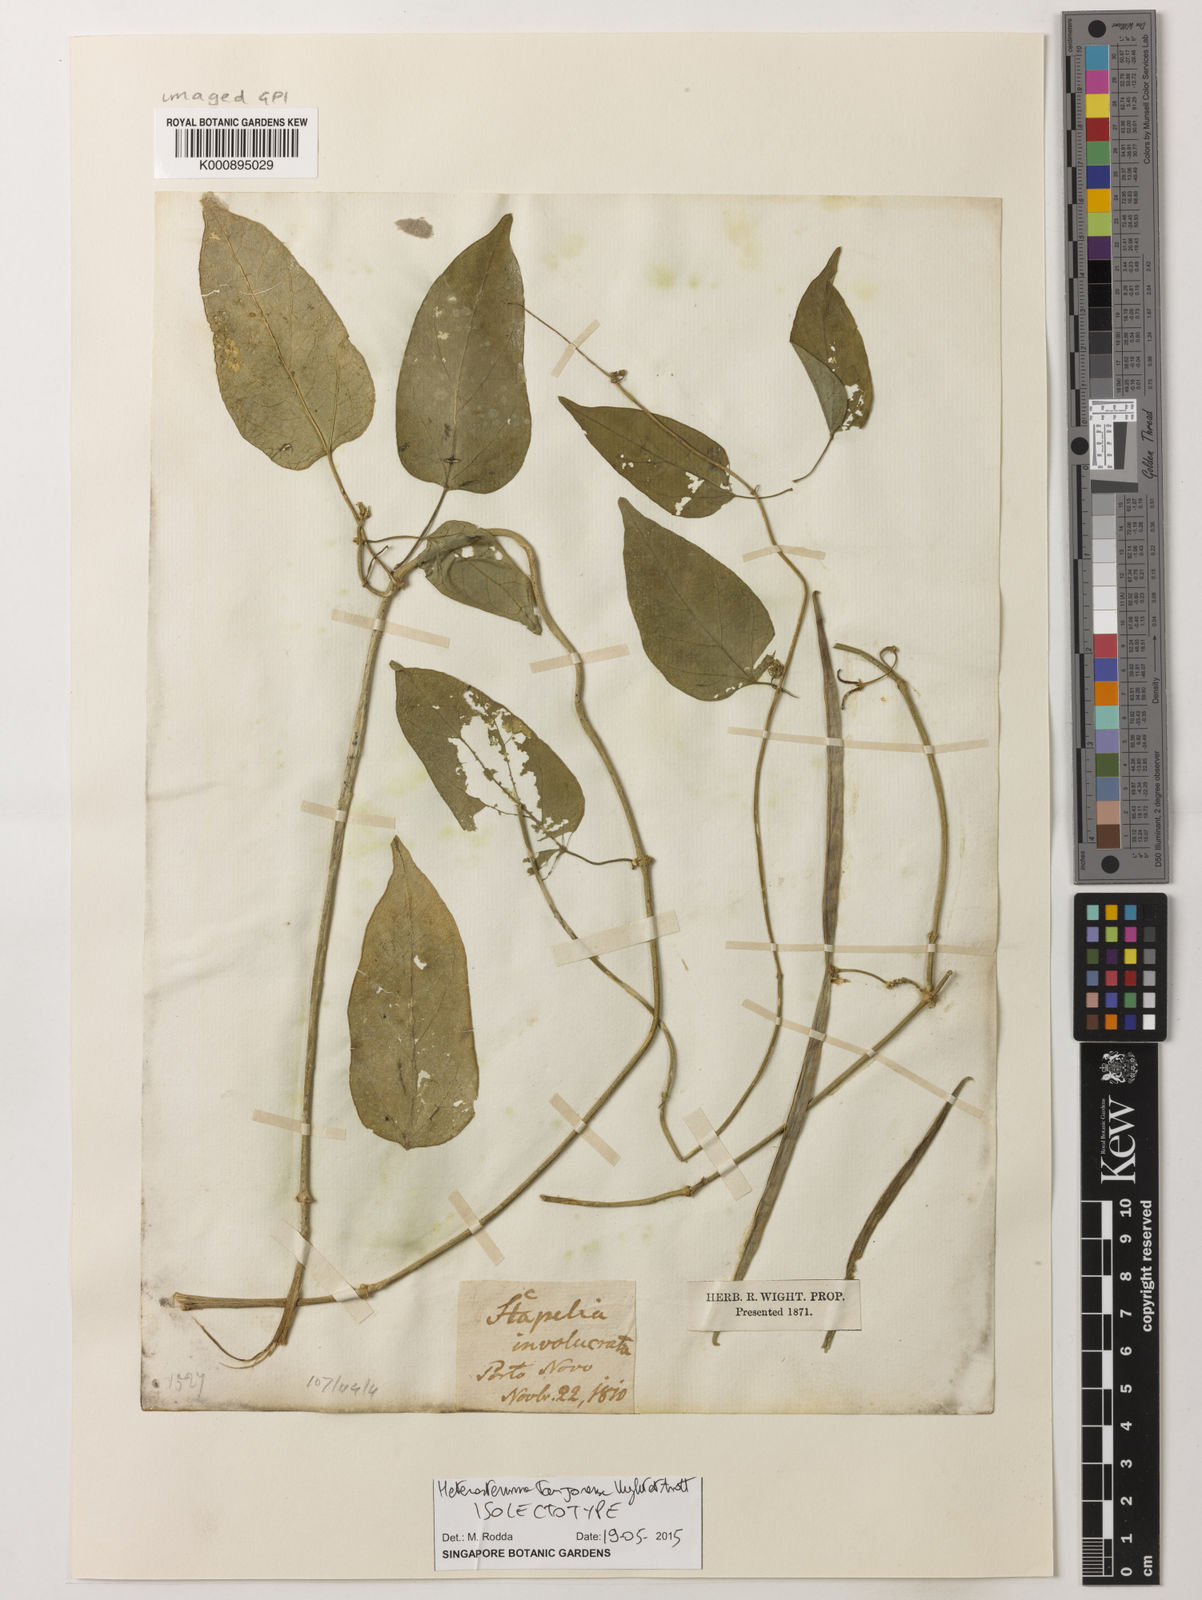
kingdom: Plantae
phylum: Tracheophyta
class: Magnoliopsida
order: Gentianales
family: Apocynaceae
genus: Heterostemma
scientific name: Heterostemma
